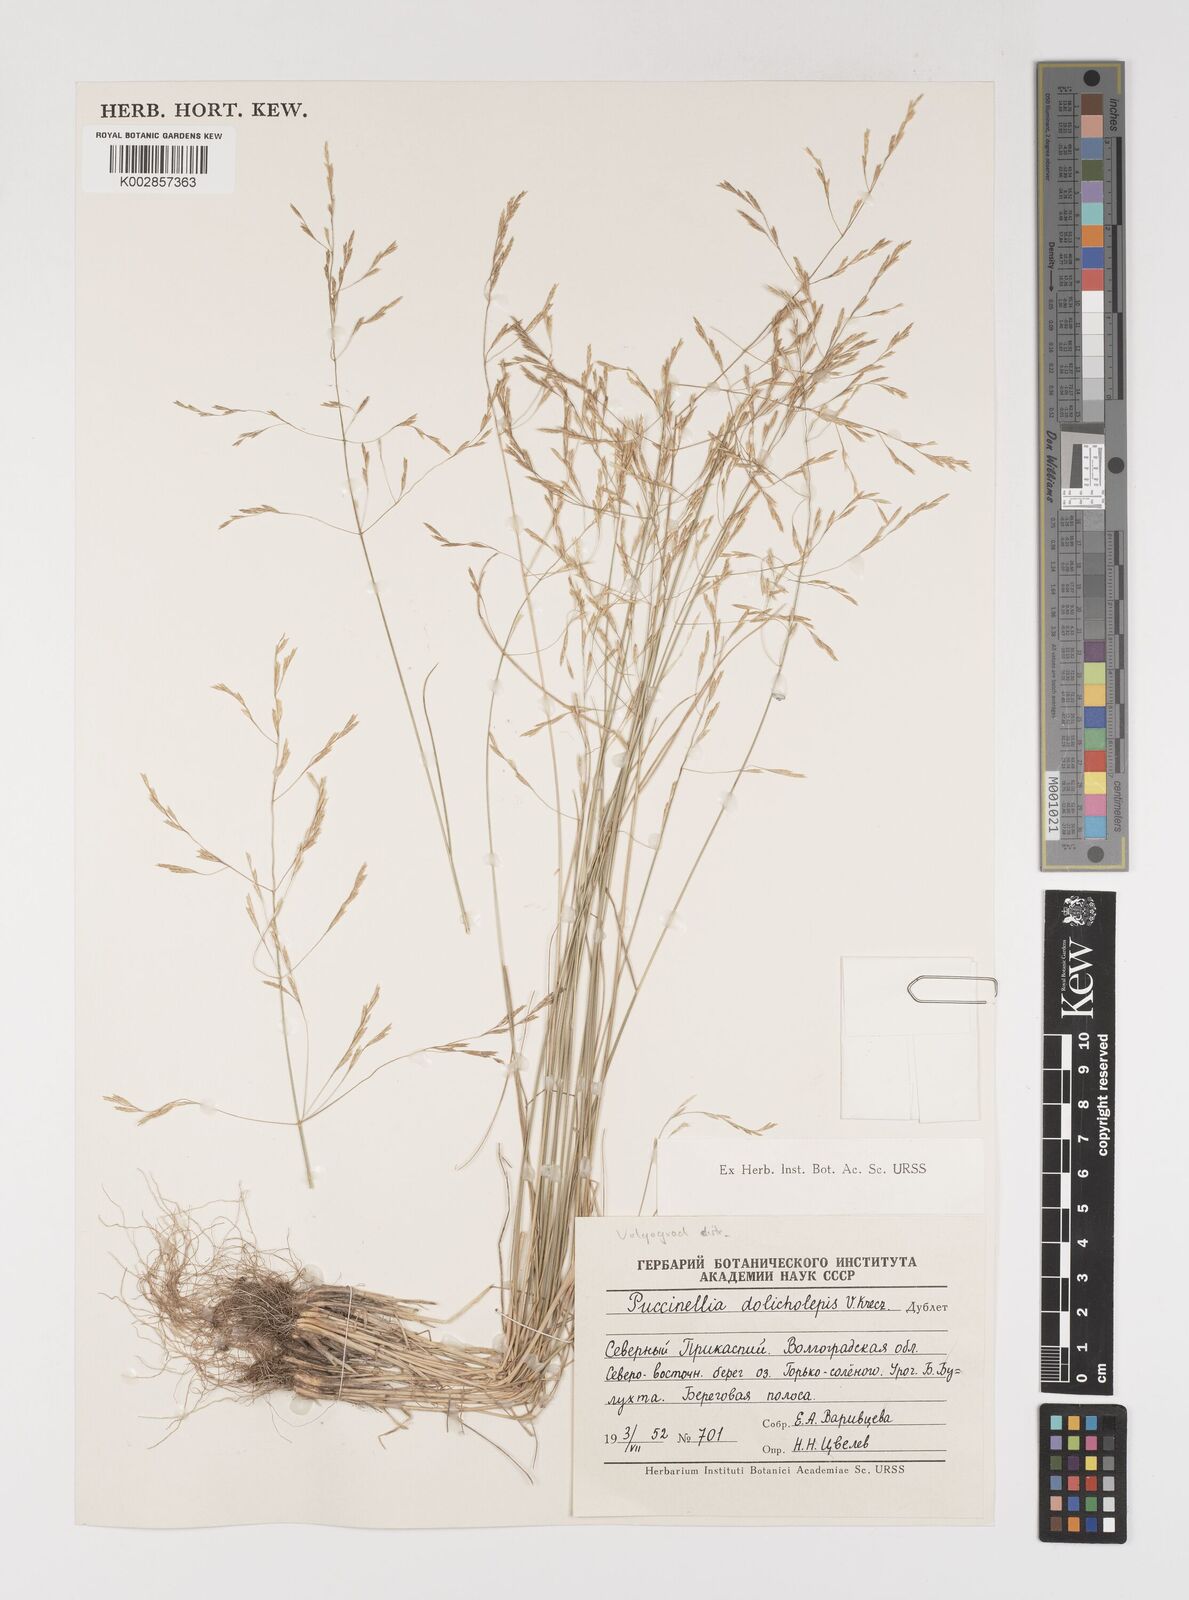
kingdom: Plantae
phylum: Tracheophyta
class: Liliopsida
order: Poales
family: Poaceae
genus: Puccinellia
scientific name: Puccinellia dolicholepis
